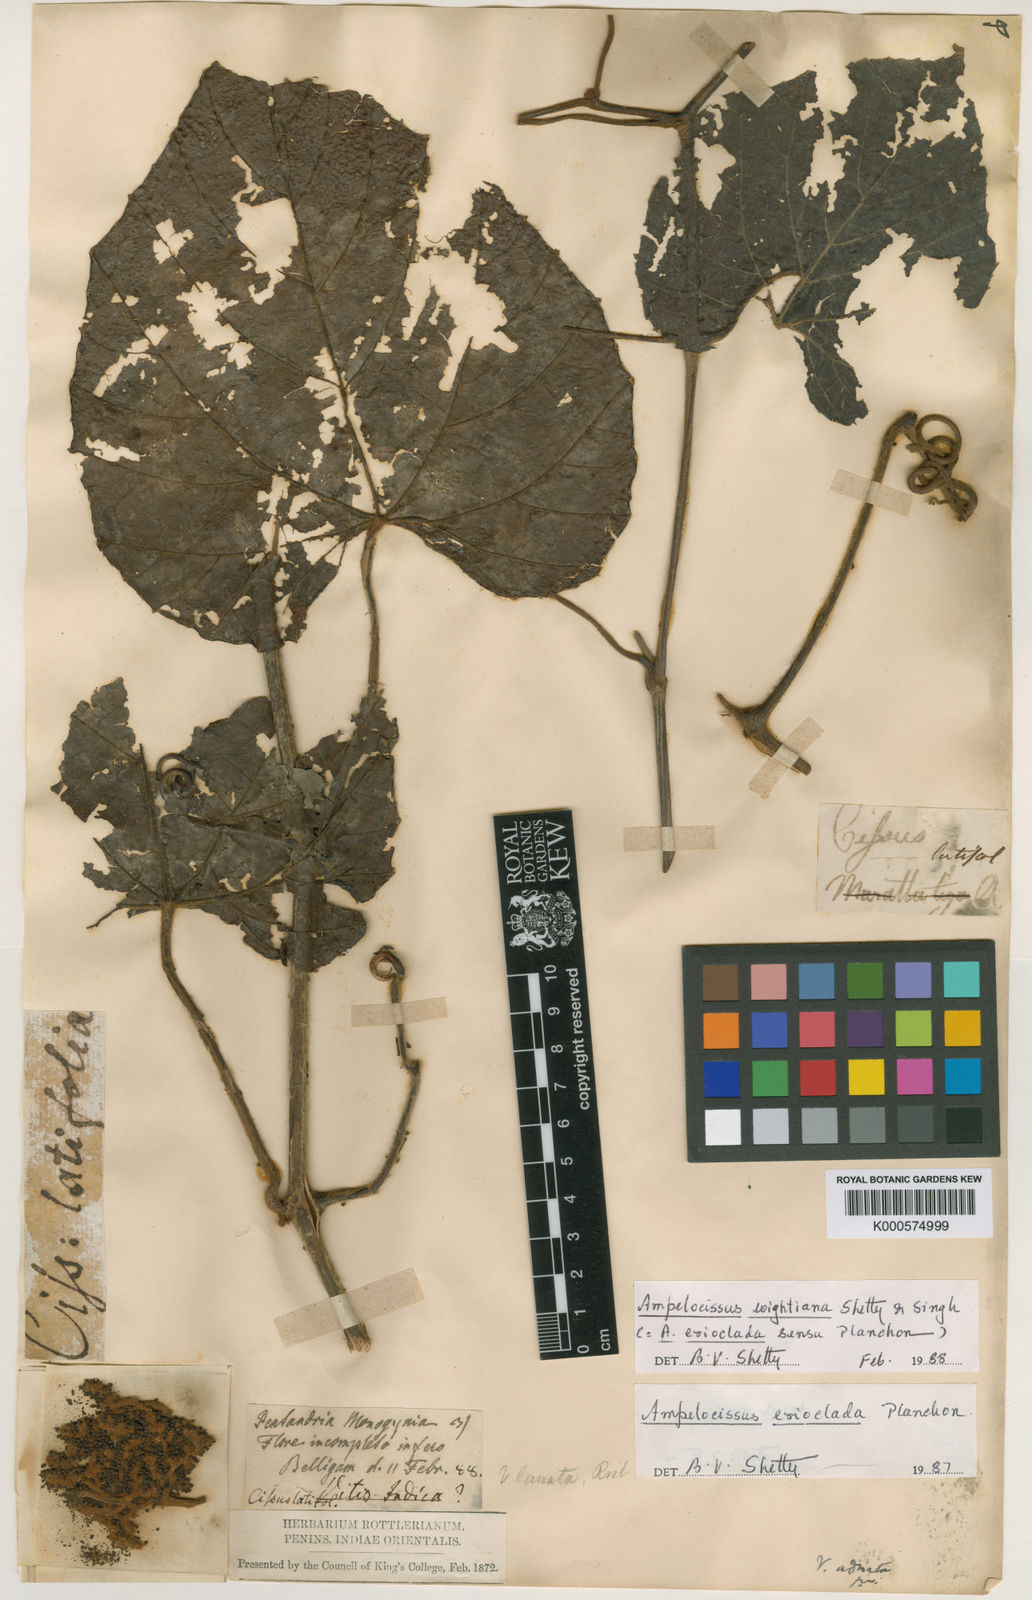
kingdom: Plantae
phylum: Tracheophyta
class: Magnoliopsida
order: Vitales
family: Vitaceae
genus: Ampelocissus
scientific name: Ampelocissus wightiana
